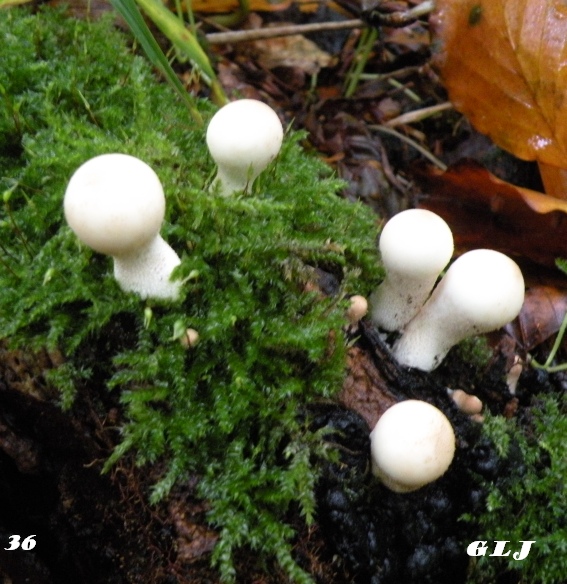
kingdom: Fungi
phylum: Basidiomycota
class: Agaricomycetes
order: Agaricales
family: Lycoperdaceae
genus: Apioperdon
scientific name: Apioperdon pyriforme
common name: pære-støvbold
